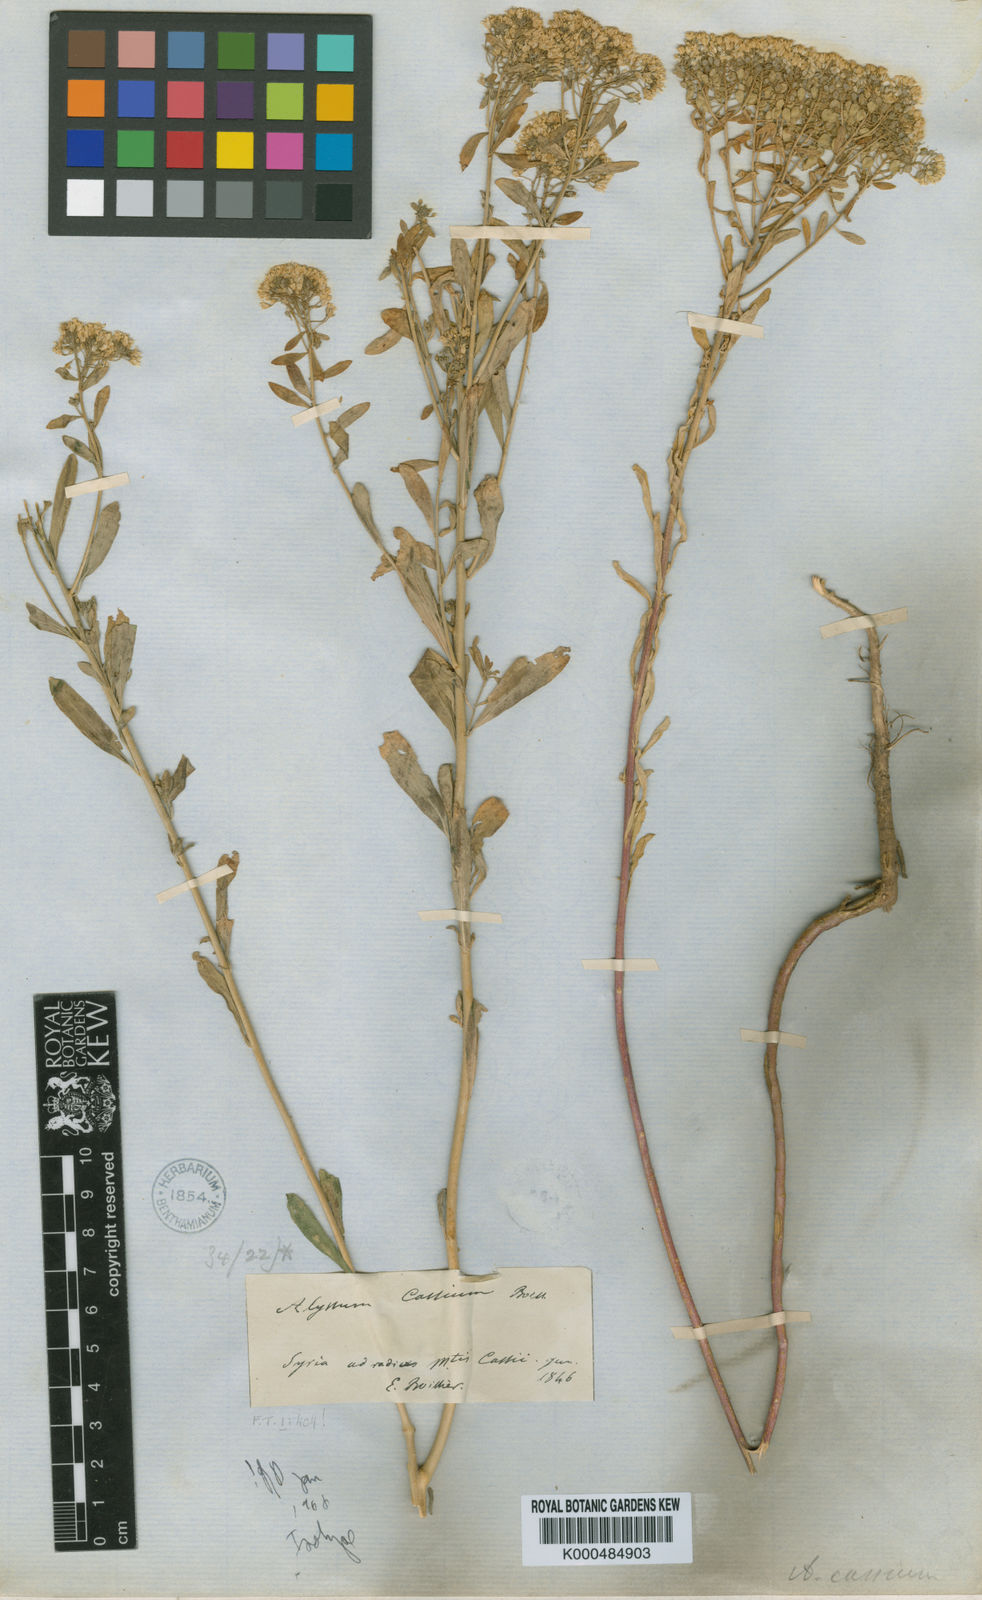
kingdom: Plantae
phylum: Tracheophyta
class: Magnoliopsida
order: Brassicales
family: Brassicaceae
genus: Odontarrhena
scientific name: Odontarrhena
